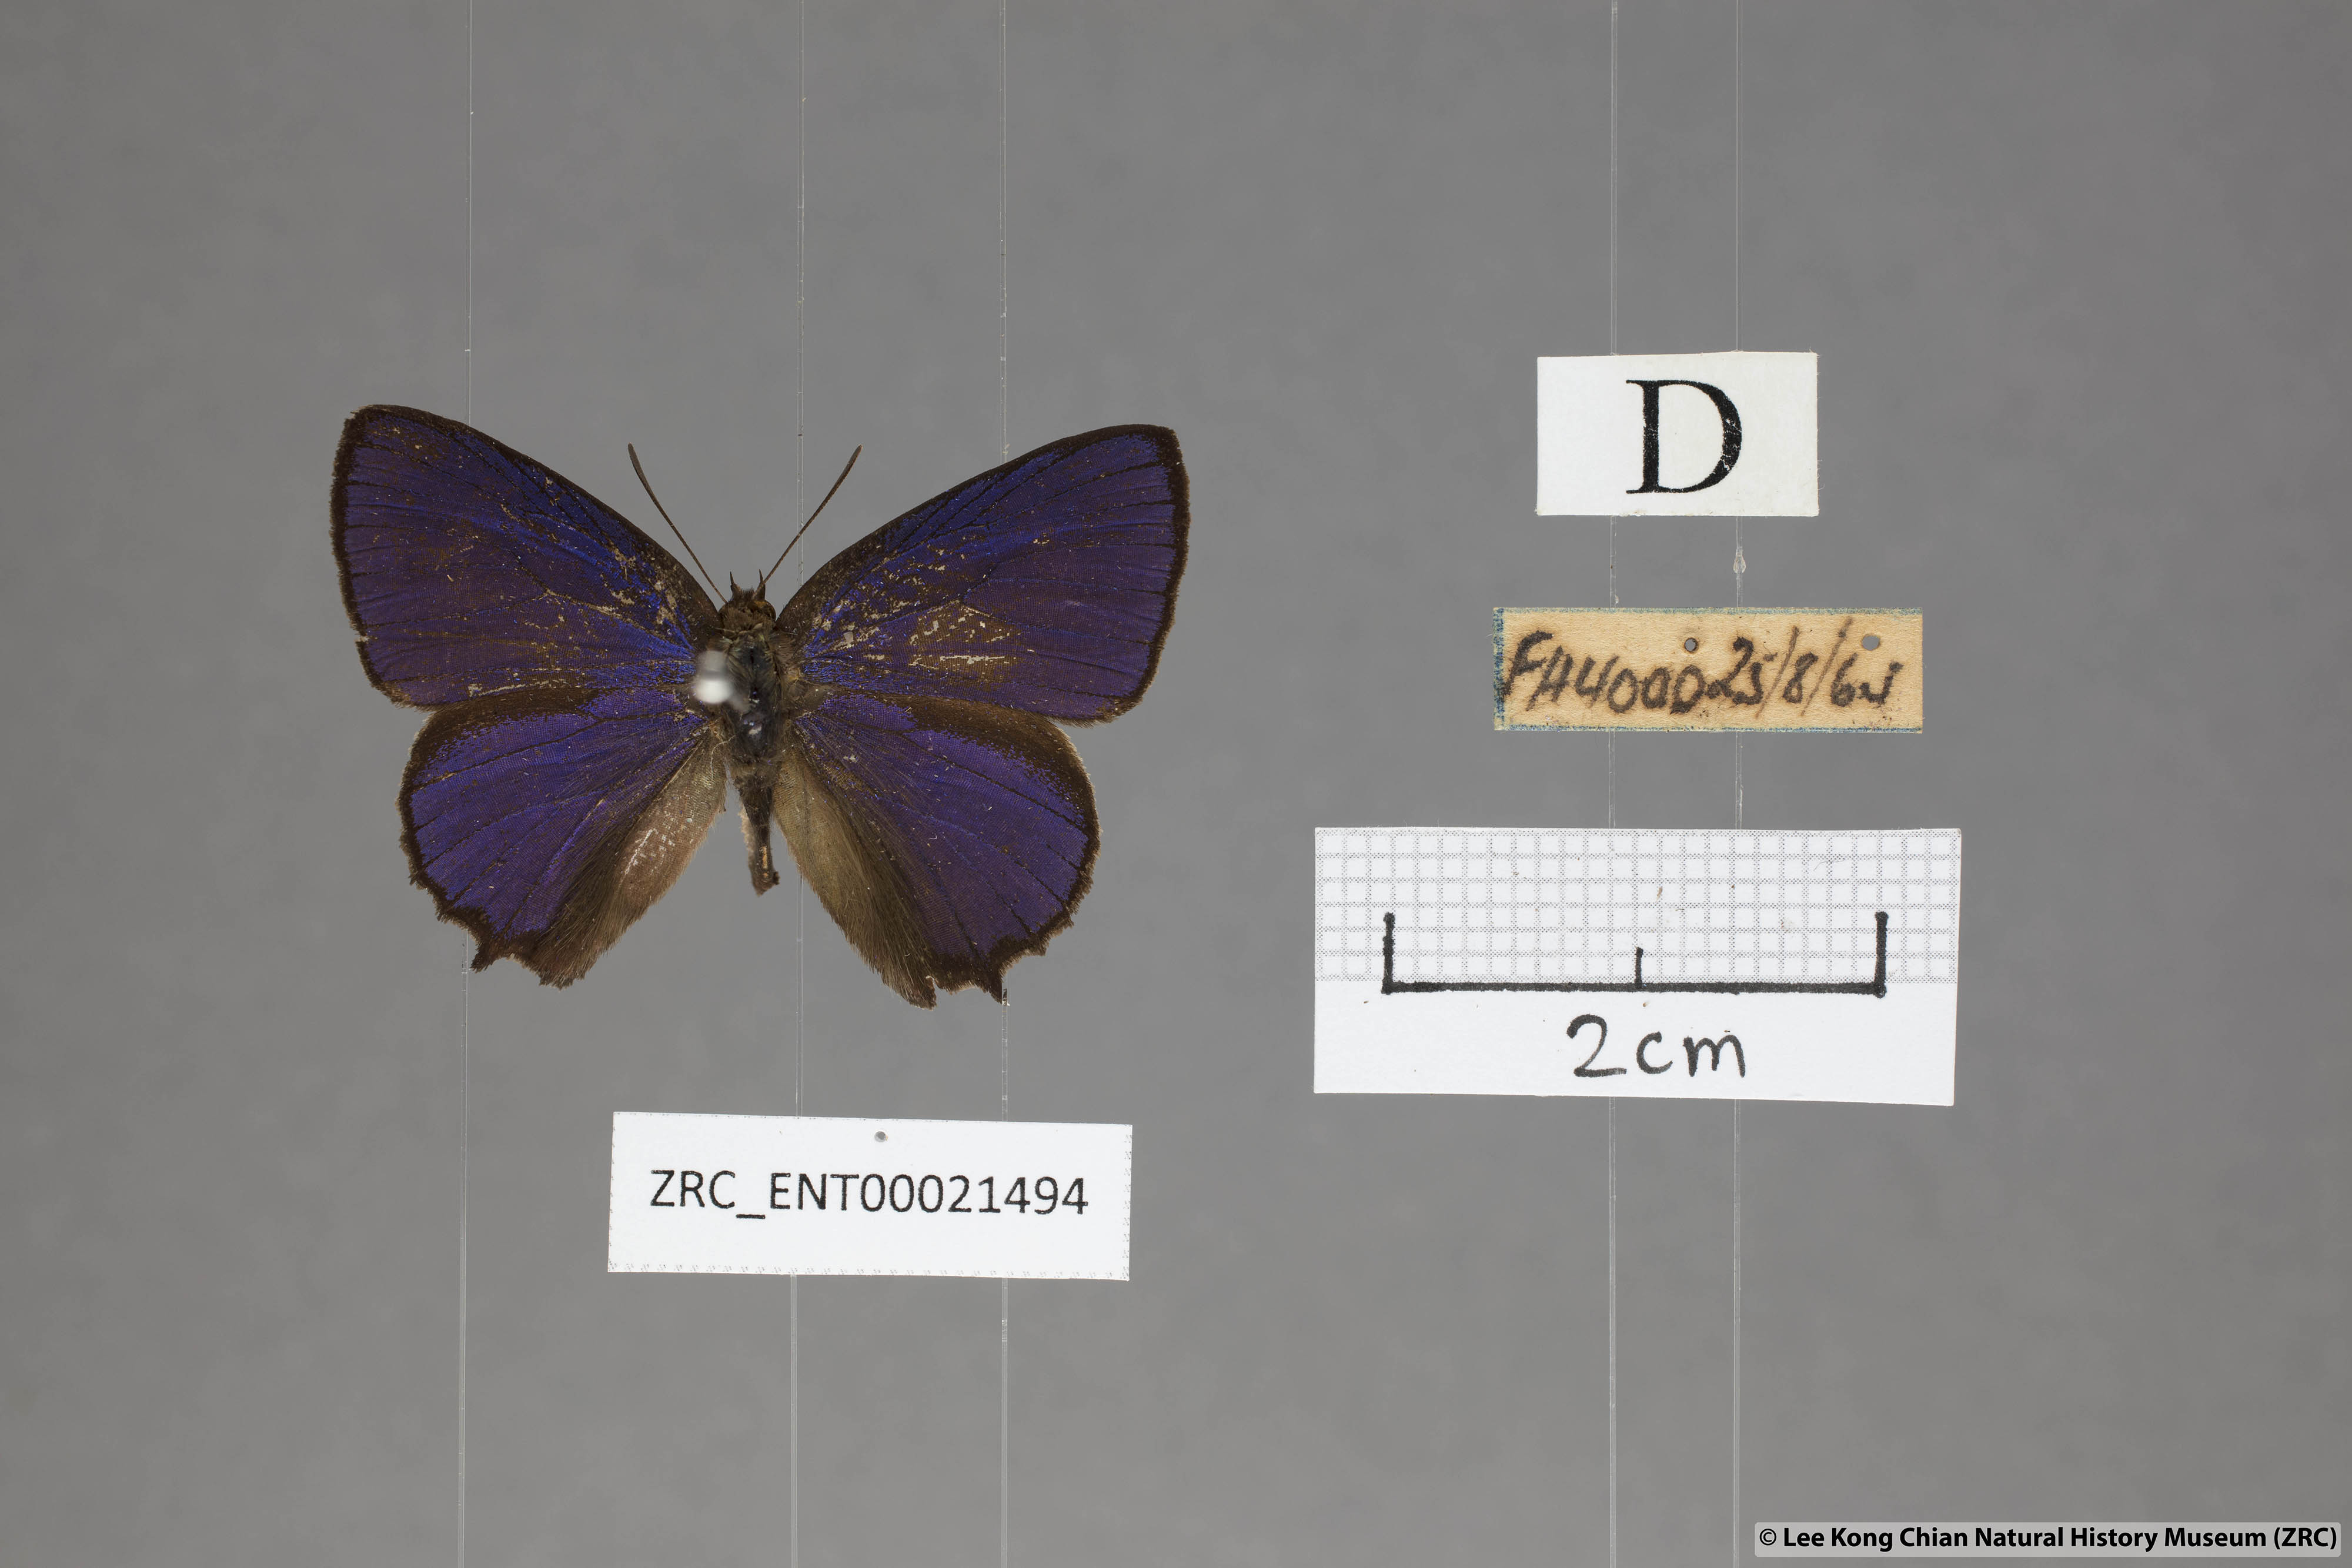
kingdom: Animalia
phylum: Arthropoda
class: Insecta
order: Lepidoptera
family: Lycaenidae
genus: Flos
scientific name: Flos
